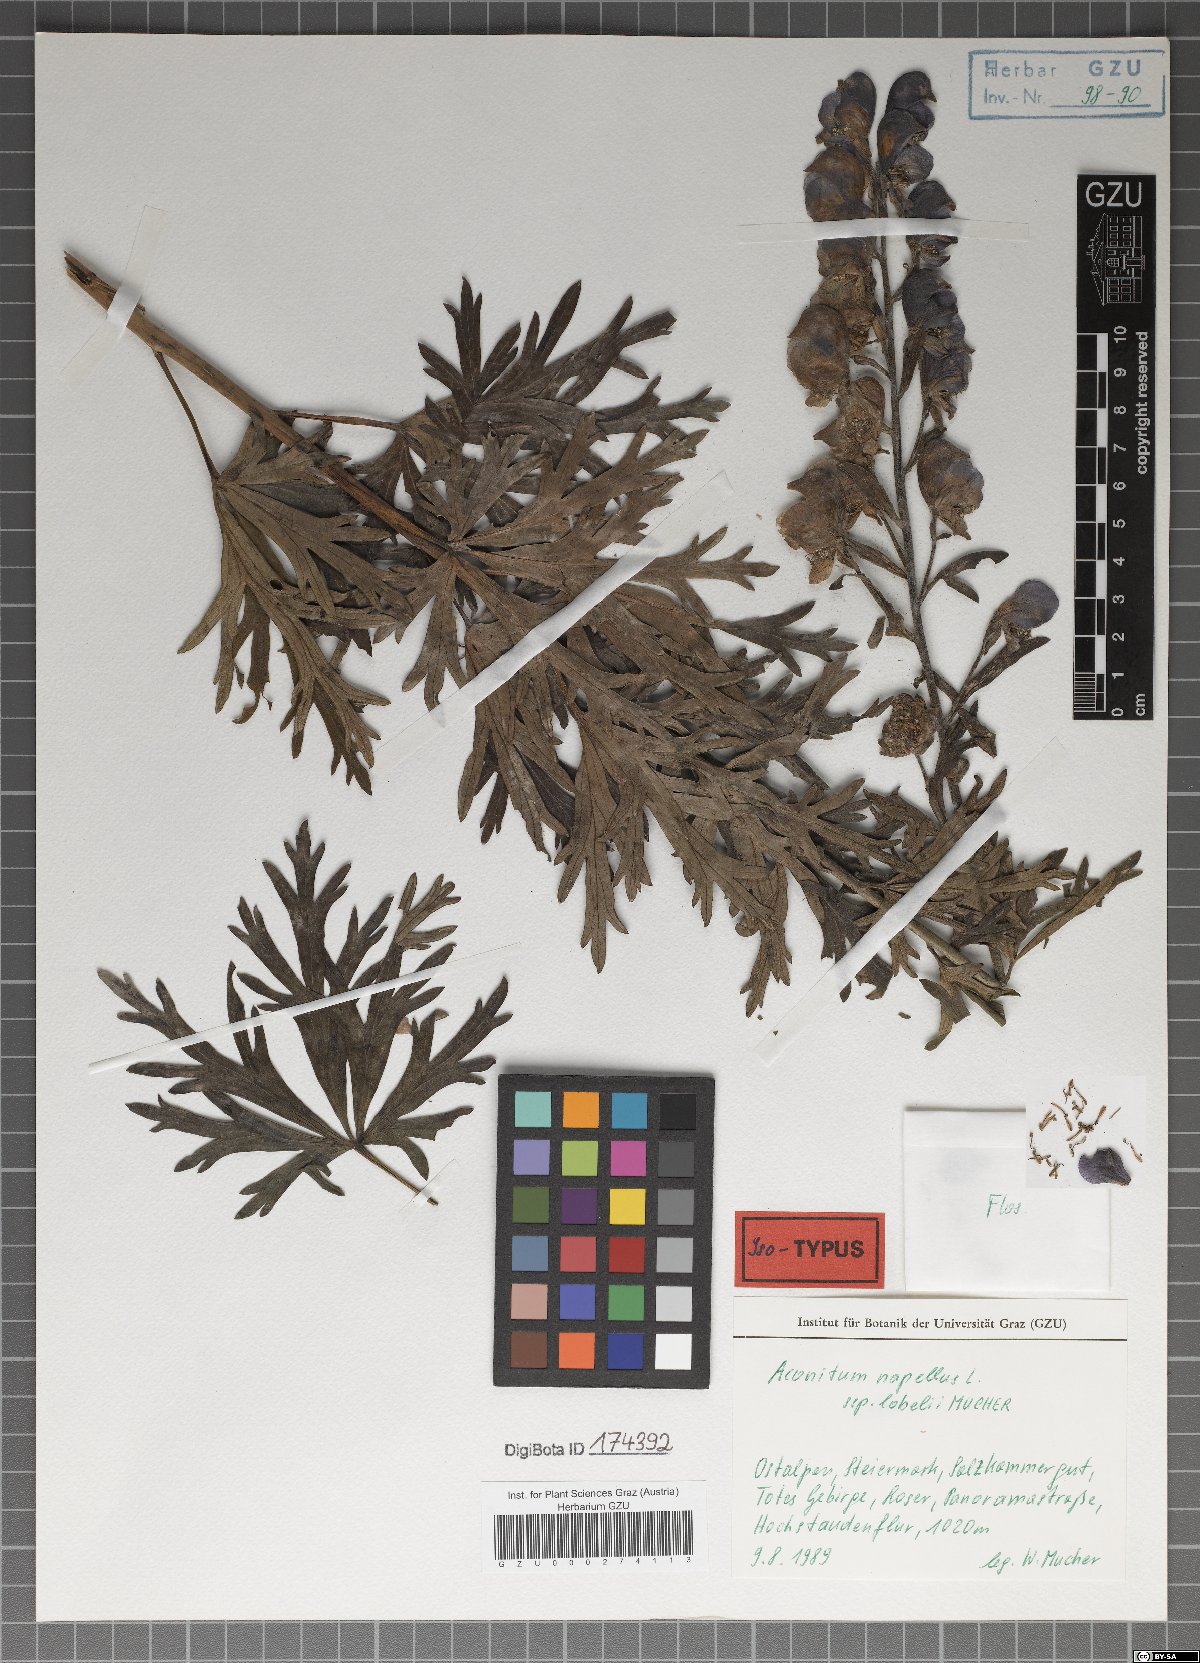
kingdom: Plantae
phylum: Tracheophyta
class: Magnoliopsida
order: Ranunculales
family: Ranunculaceae
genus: Aconitum
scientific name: Aconitum napellus
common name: Garden monkshood
